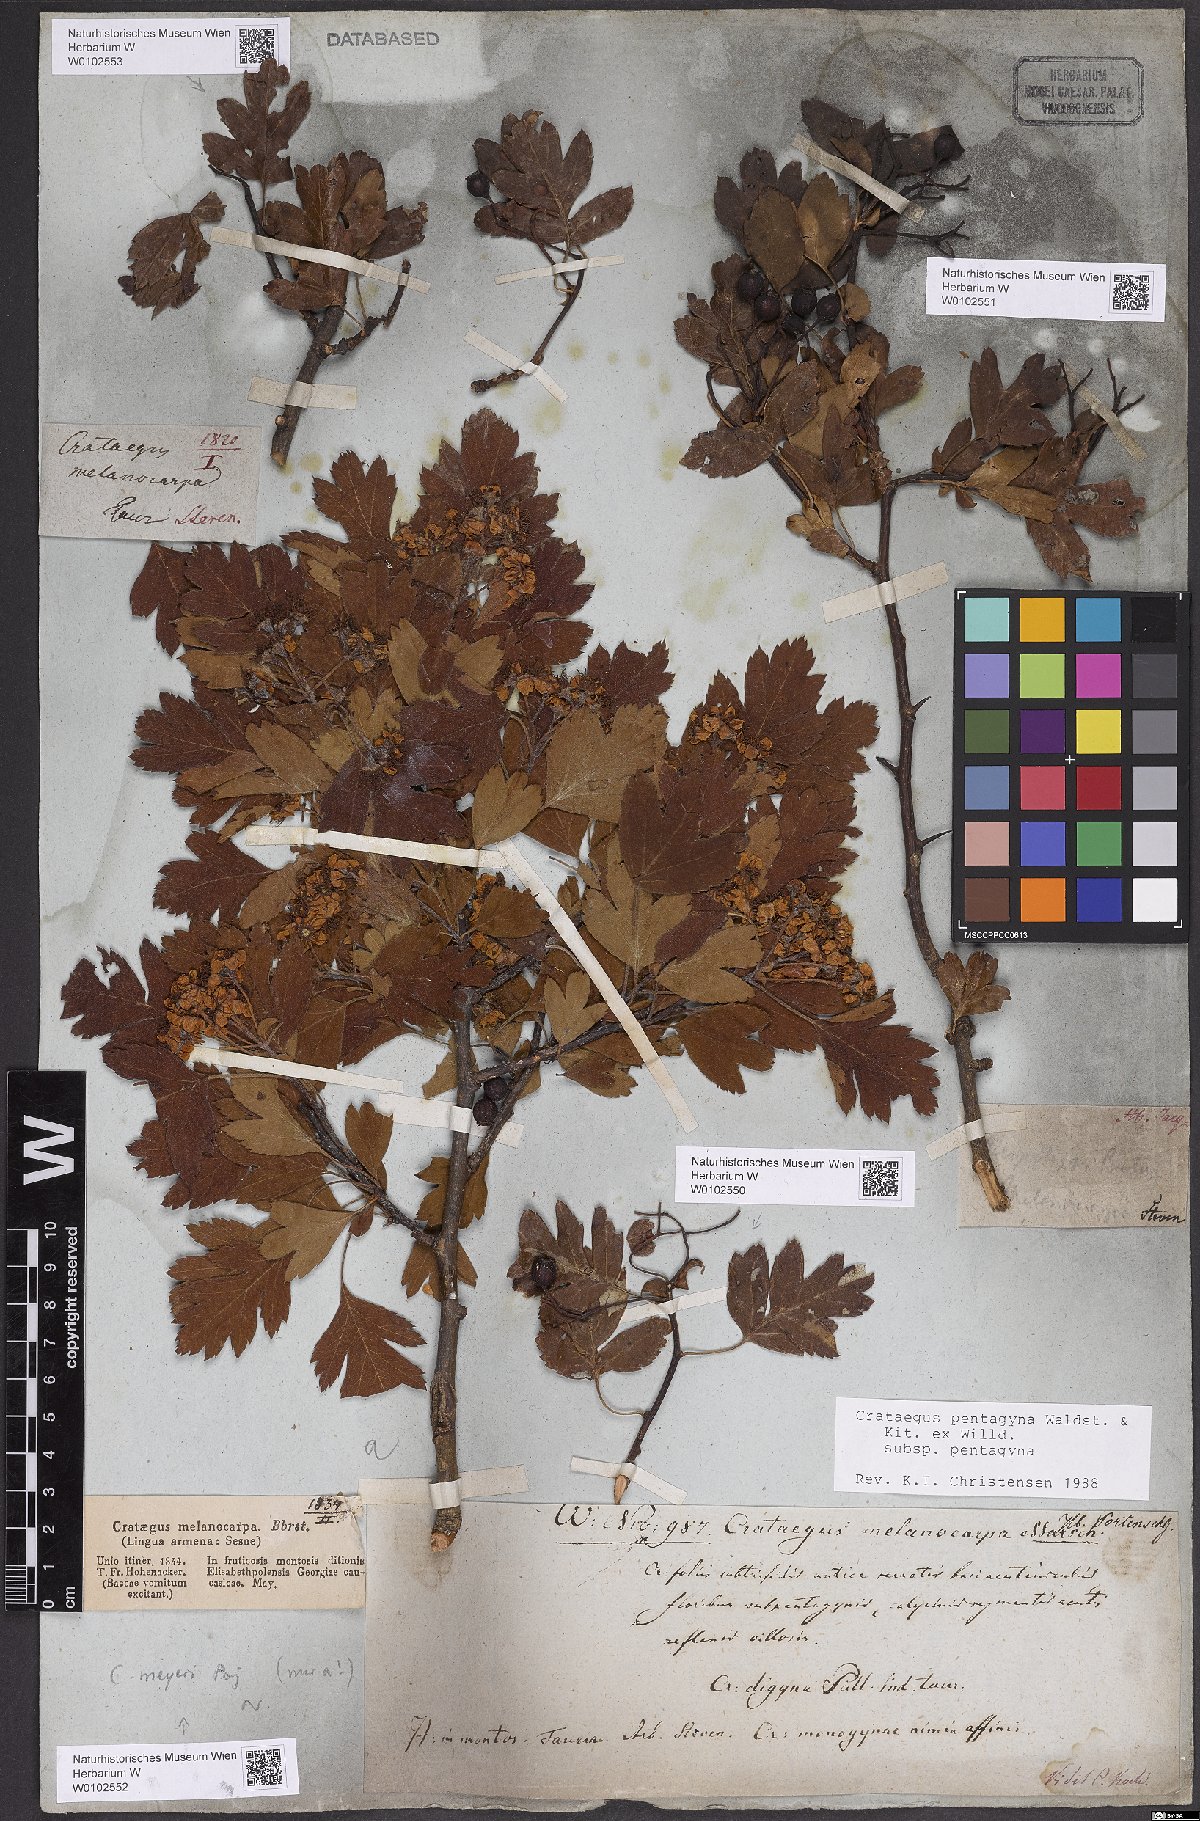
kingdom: Plantae
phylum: Tracheophyta
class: Magnoliopsida
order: Rosales
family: Rosaceae
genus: Crataegus
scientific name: Crataegus pentagyna
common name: Small-flowered black hawthorn
